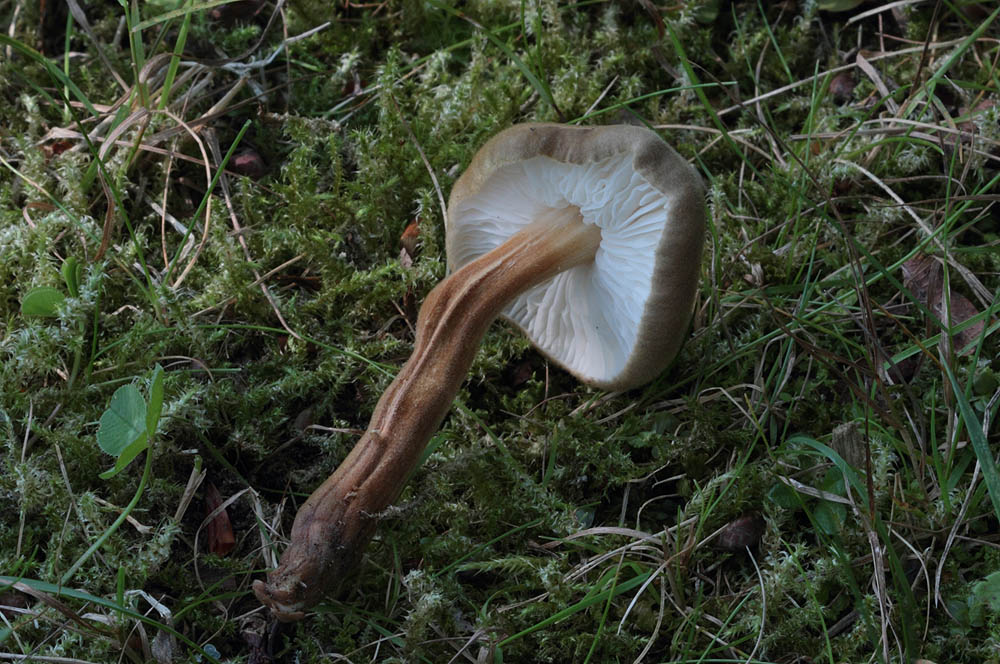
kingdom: Fungi
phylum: Basidiomycota
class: Agaricomycetes
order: Agaricales
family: Physalacriaceae
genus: Xerula
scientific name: Xerula pudens
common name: filtet pælerodshat
